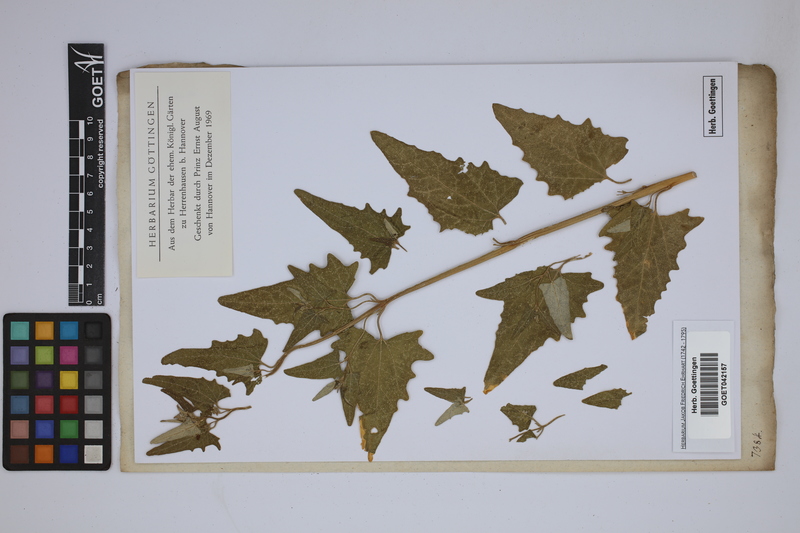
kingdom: Plantae
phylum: Tracheophyta
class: Magnoliopsida
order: Caryophyllales
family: Amaranthaceae
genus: Atriplex
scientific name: Atriplex
